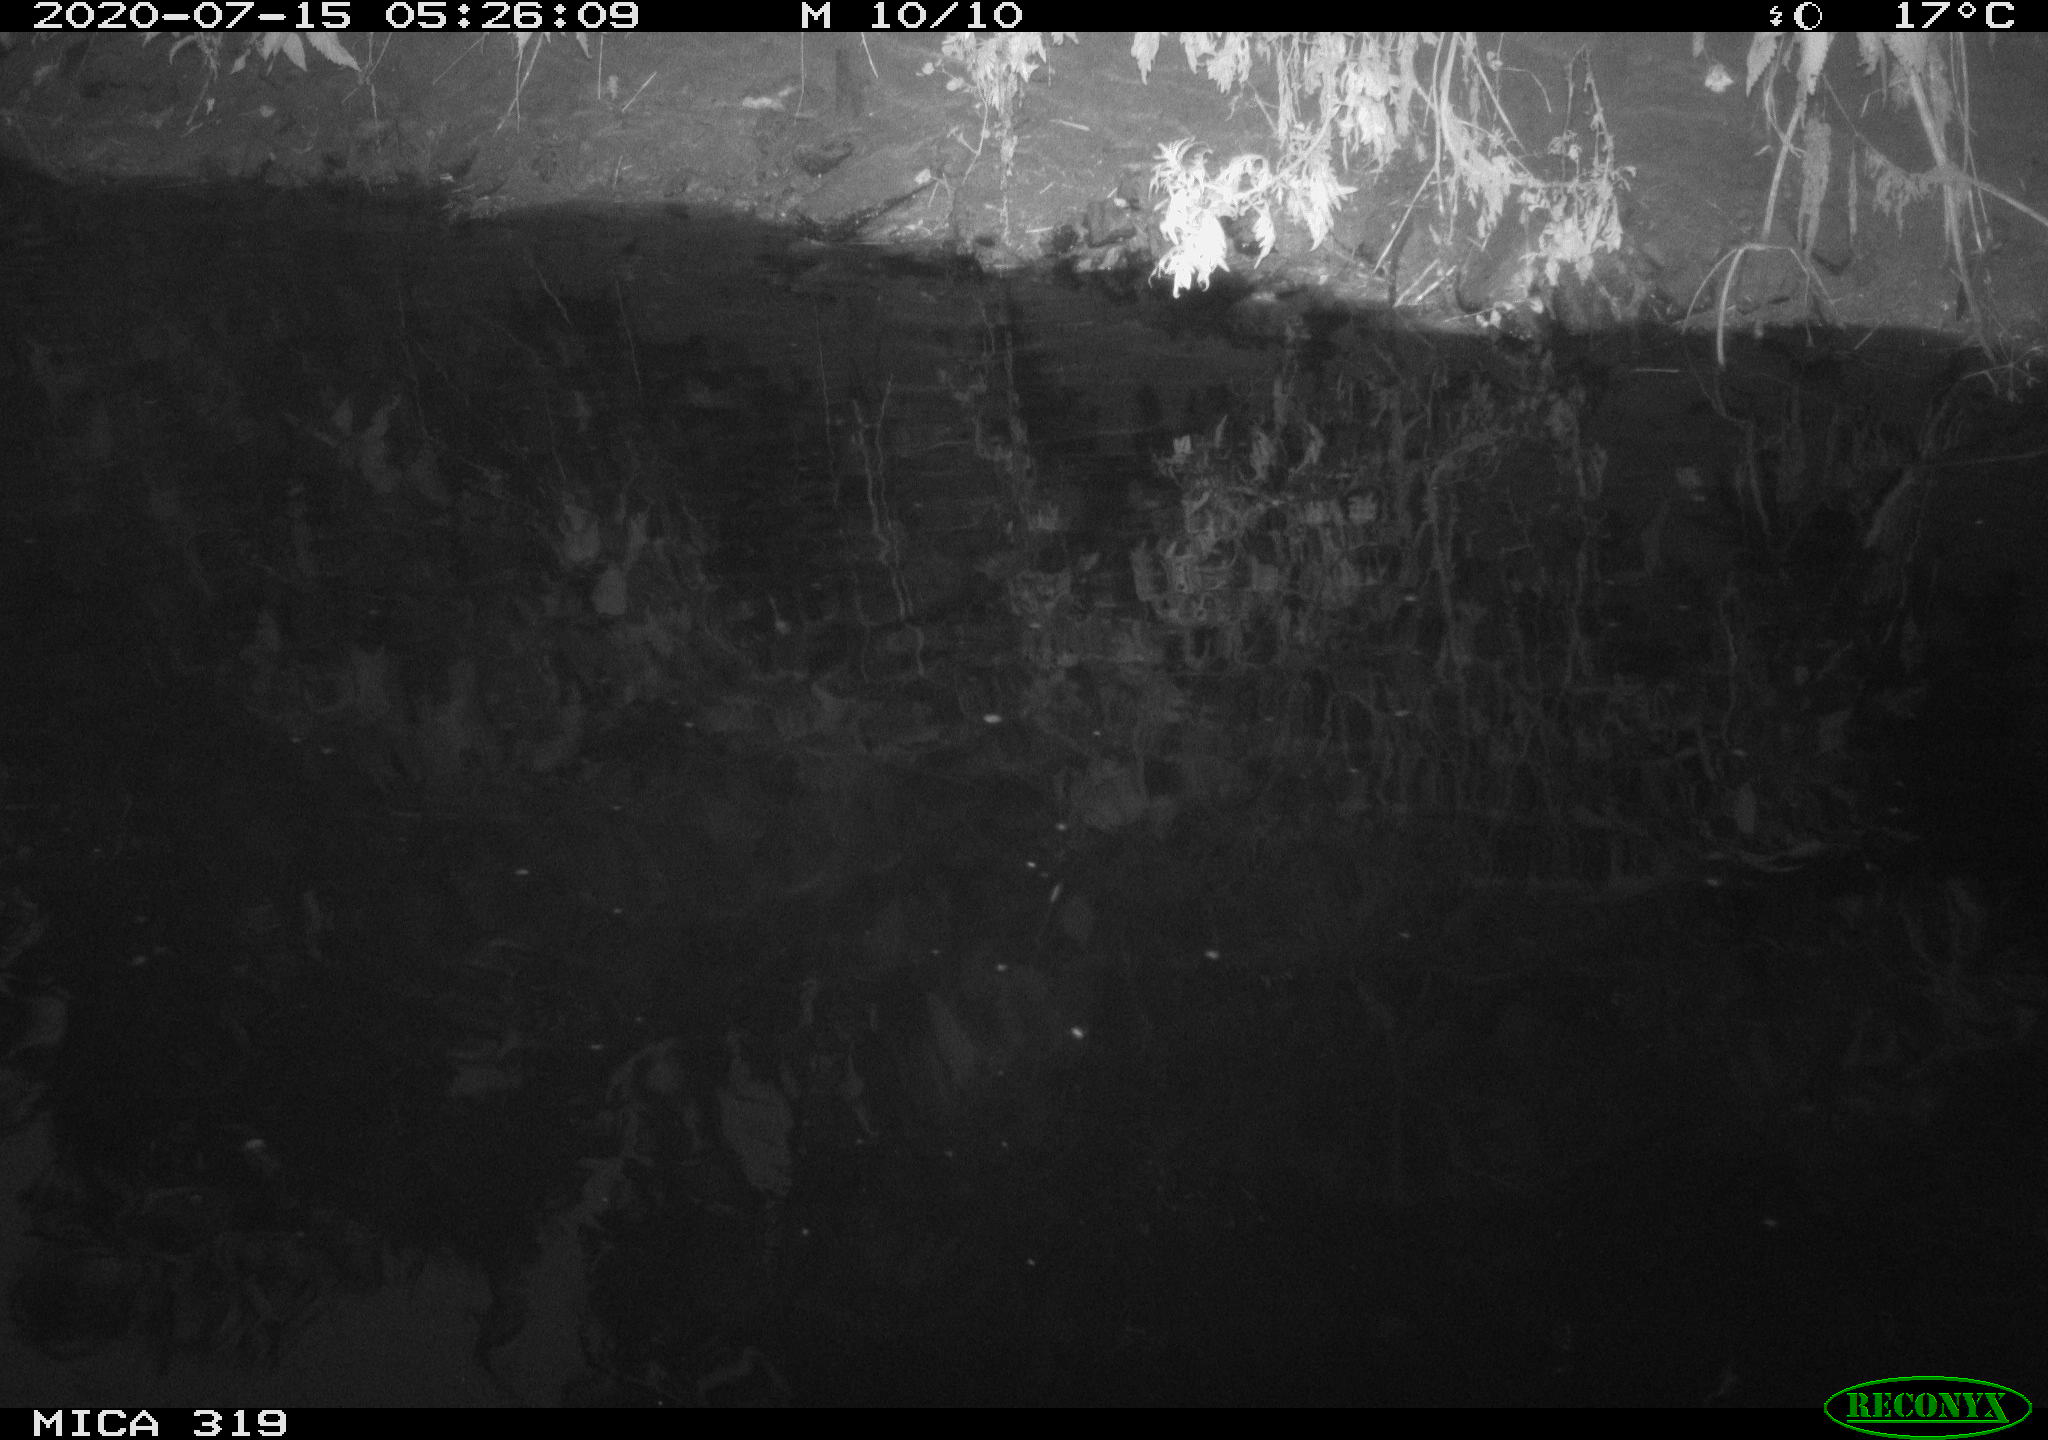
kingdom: Animalia
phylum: Chordata
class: Aves
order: Anseriformes
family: Anatidae
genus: Anas
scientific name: Anas platyrhynchos
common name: Mallard
